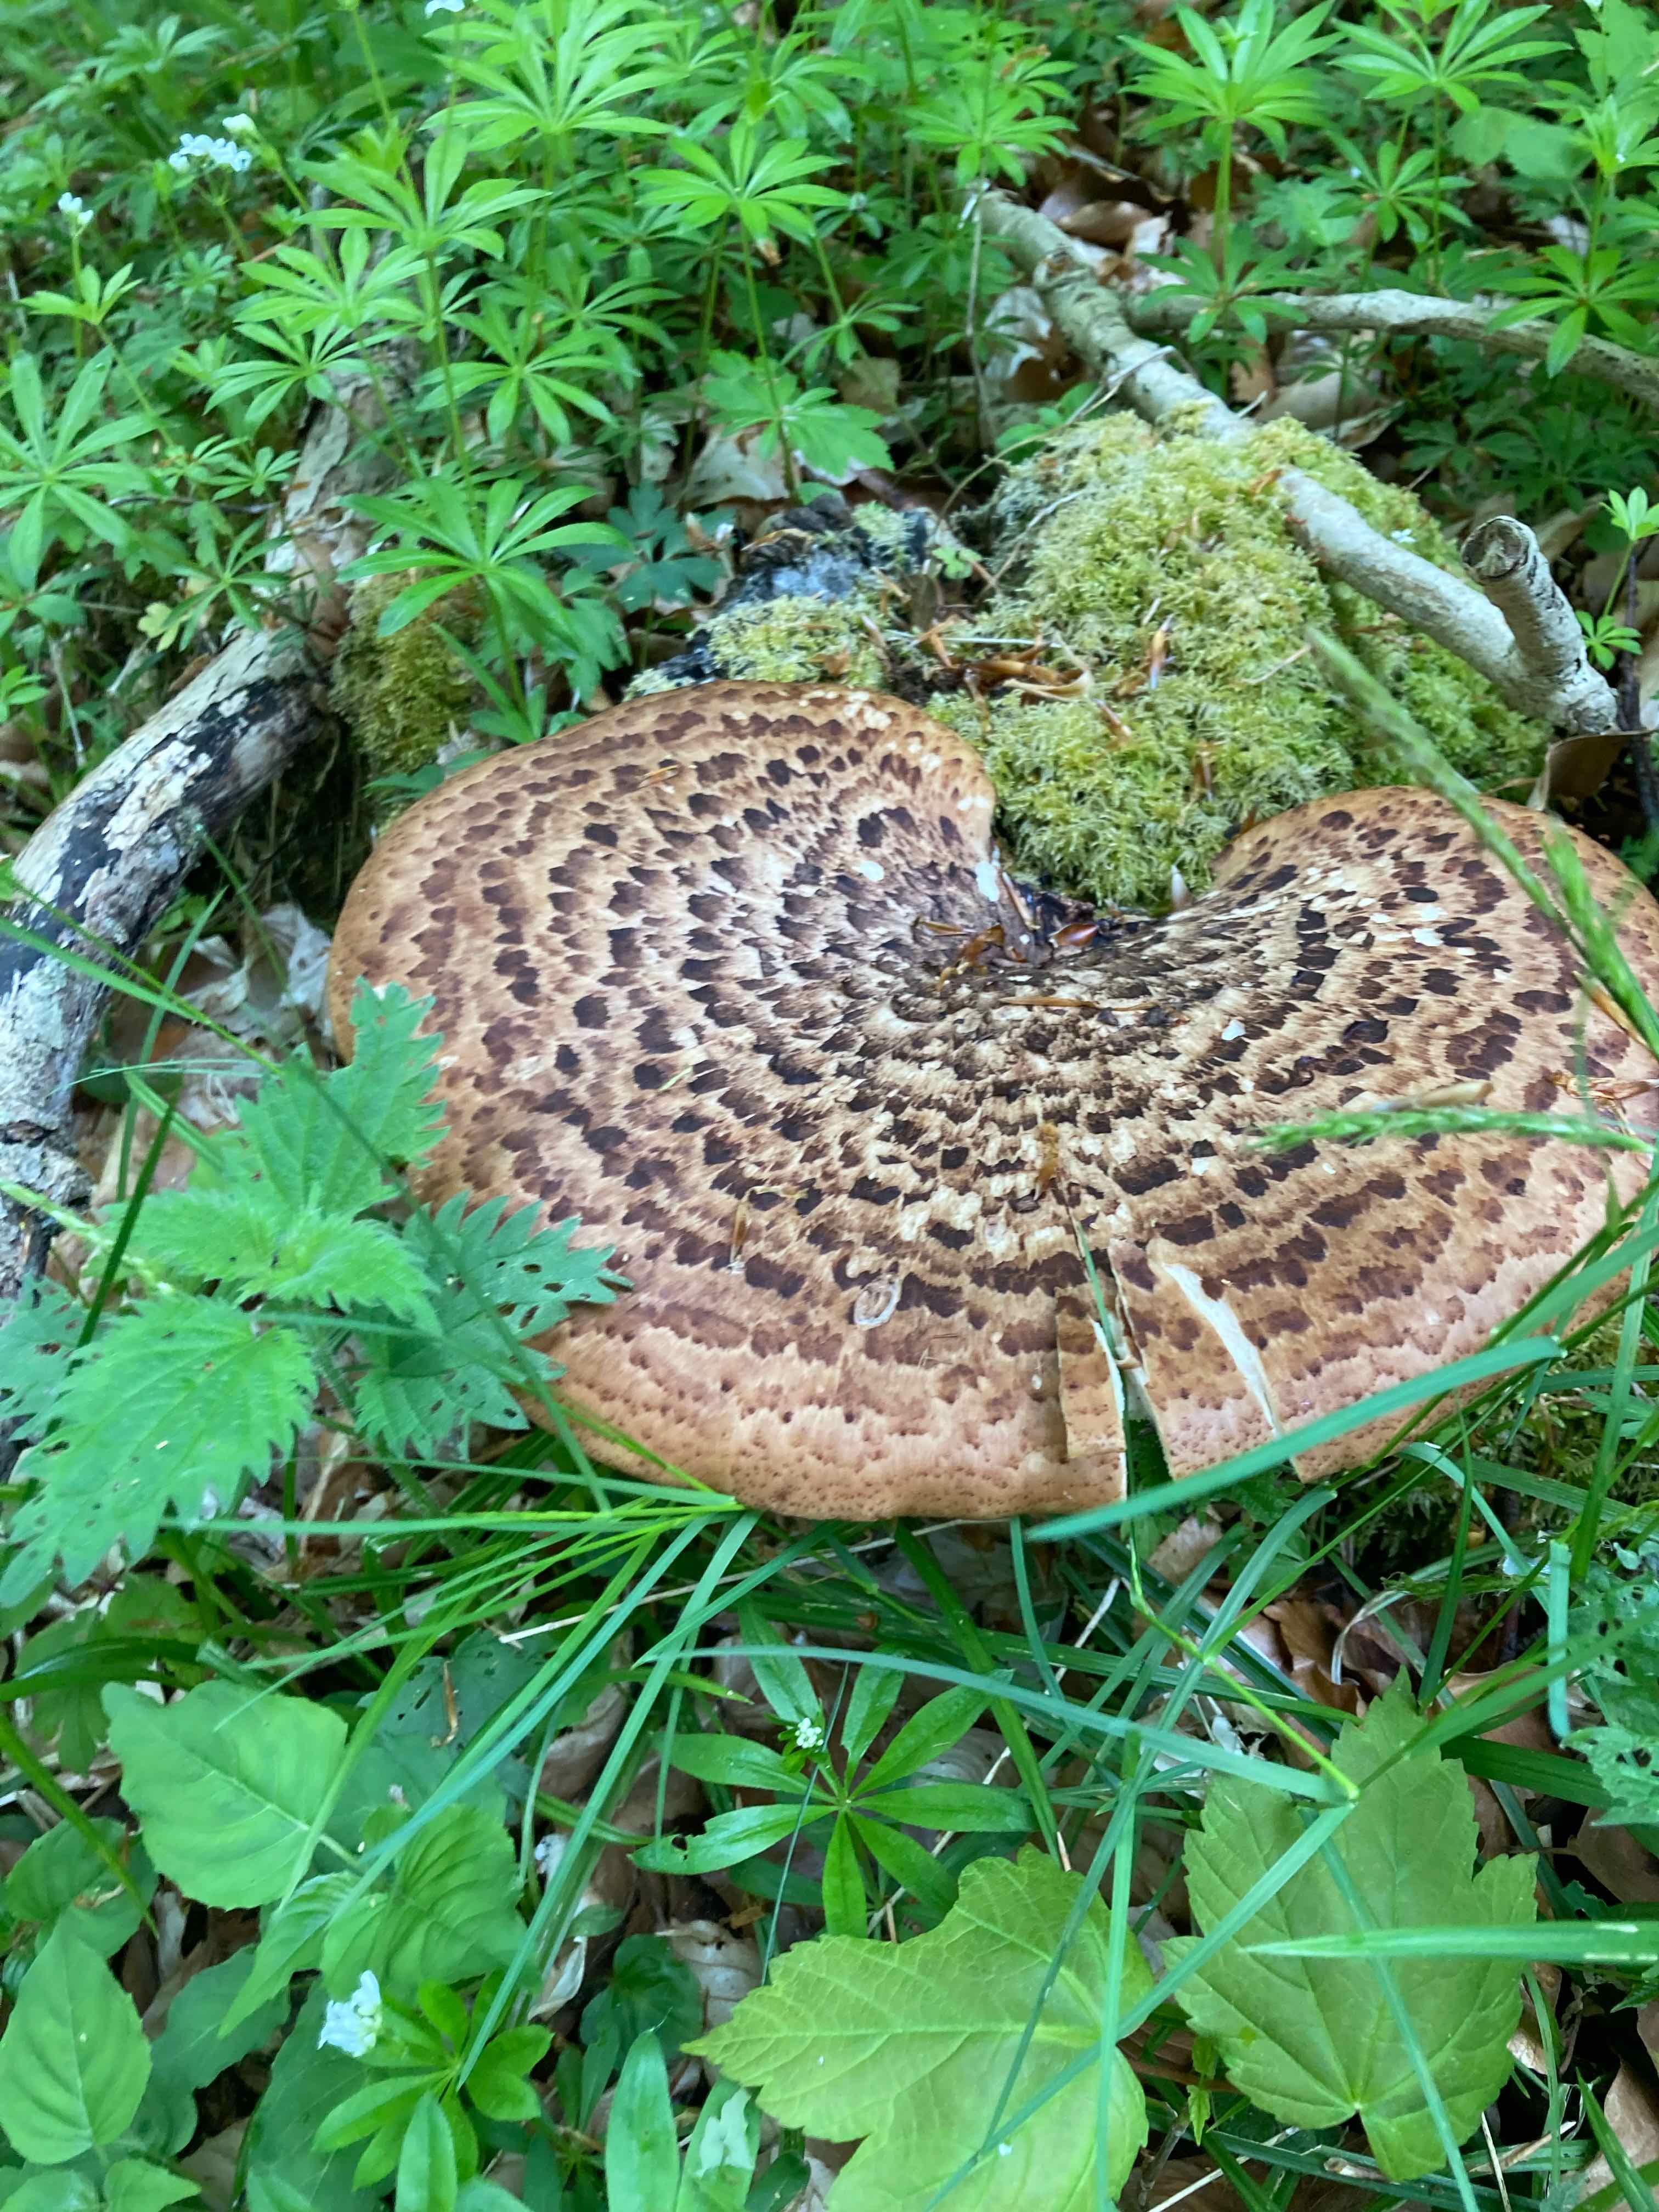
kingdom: Fungi
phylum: Basidiomycota
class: Agaricomycetes
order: Polyporales
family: Polyporaceae
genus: Cerioporus
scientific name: Cerioporus squamosus
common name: skællet stilkporesvamp
